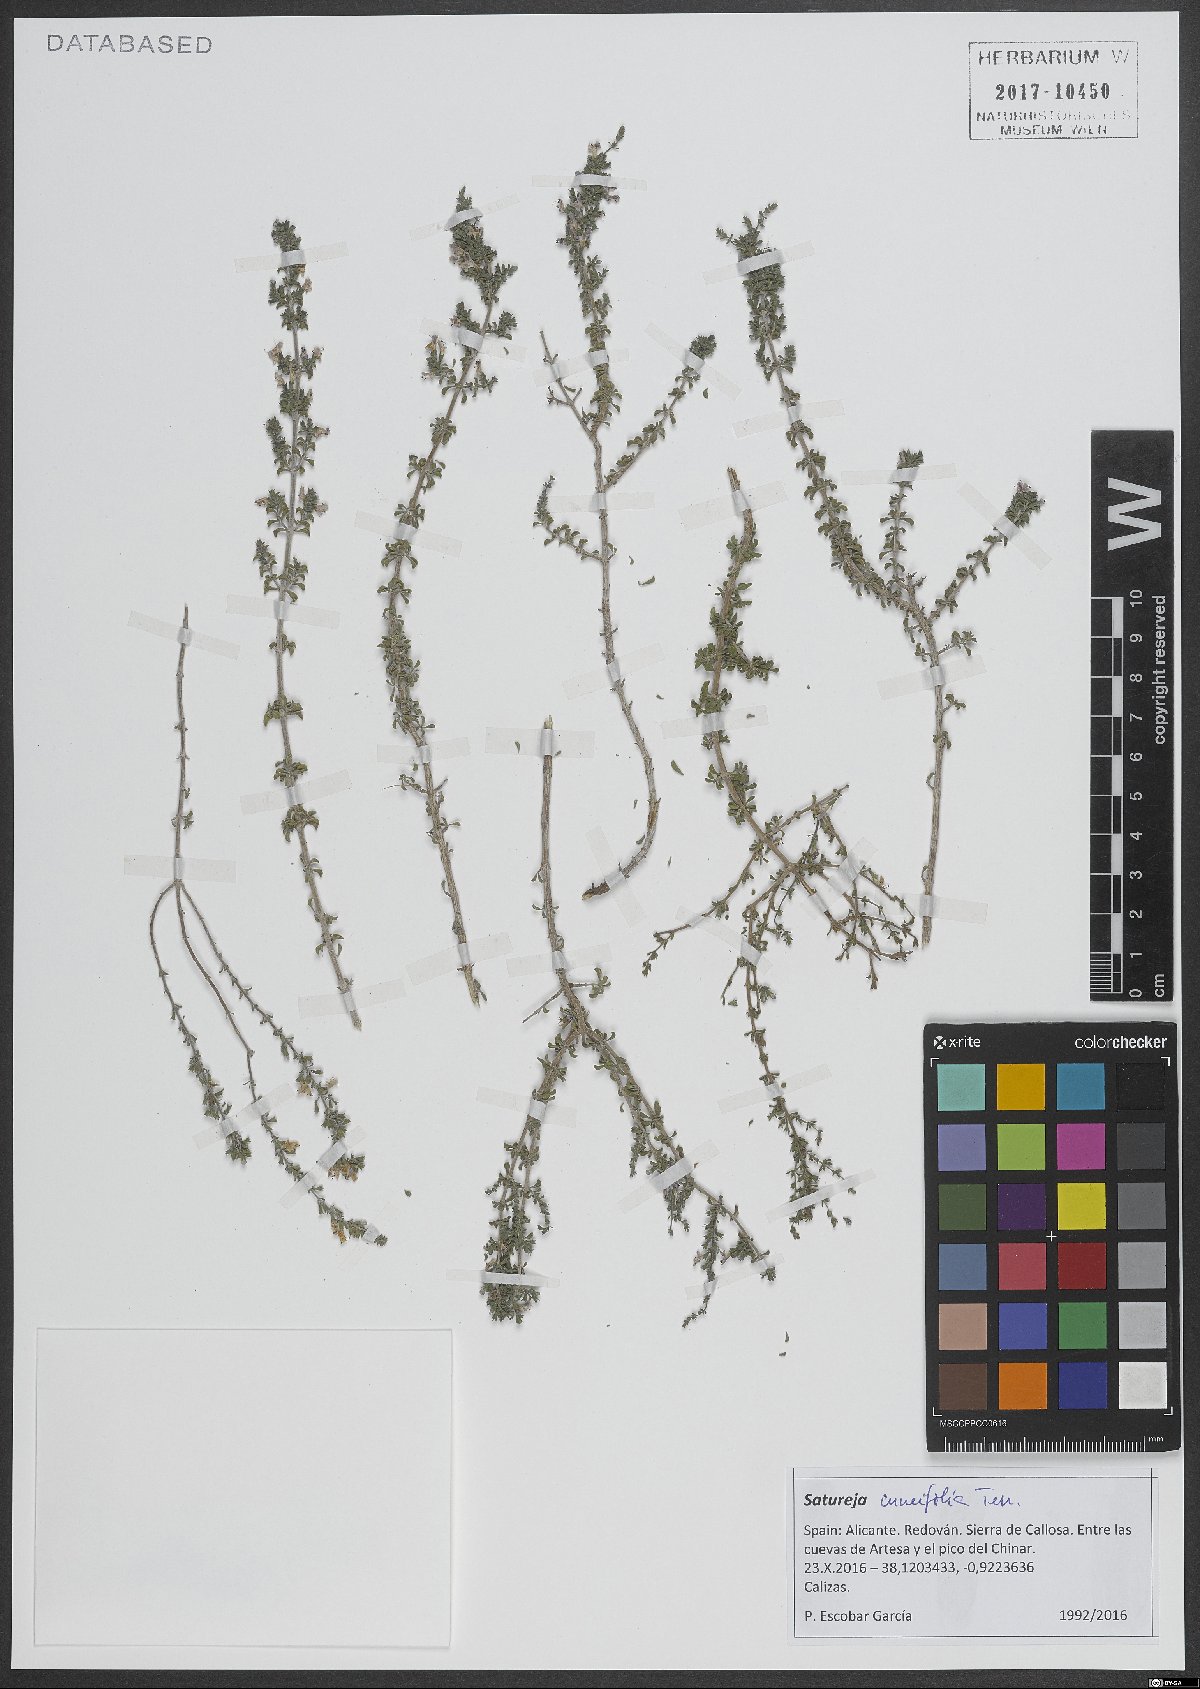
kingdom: Plantae
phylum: Tracheophyta
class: Magnoliopsida
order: Lamiales
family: Lamiaceae
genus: Satureja
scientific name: Satureja cuneifolia
